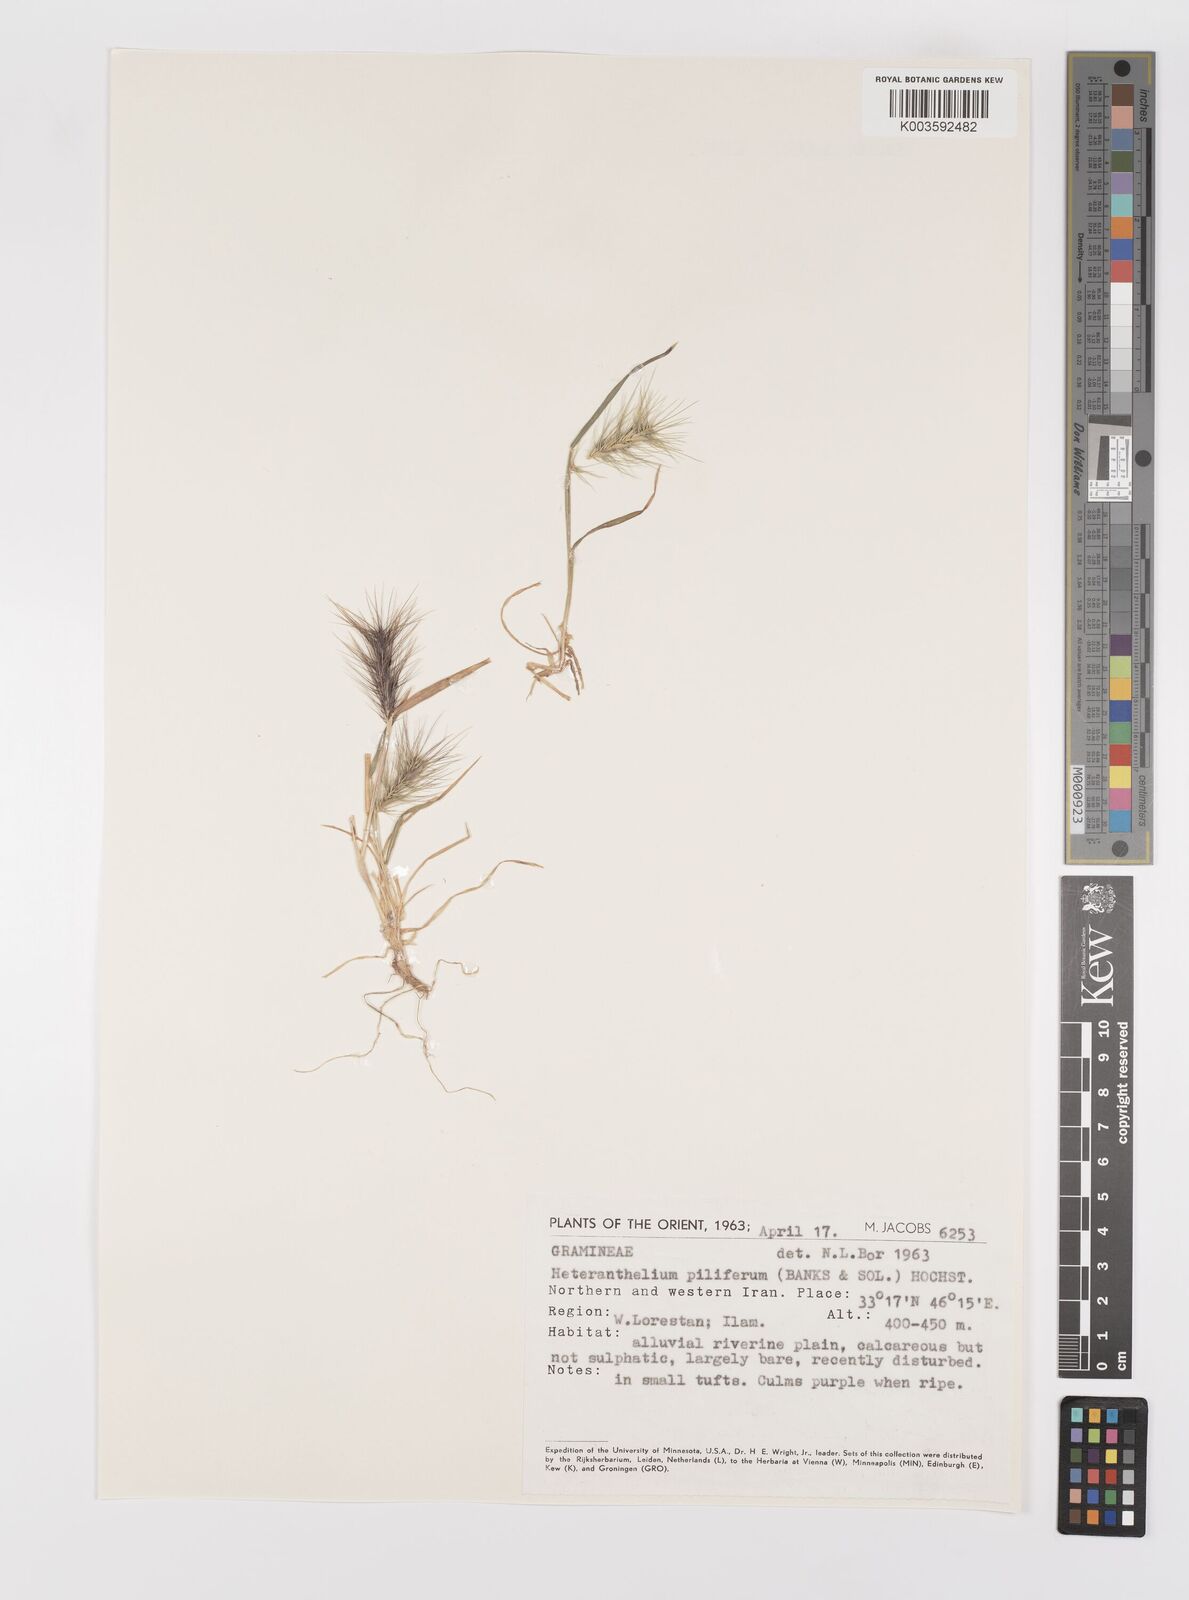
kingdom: Plantae
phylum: Tracheophyta
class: Liliopsida
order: Poales
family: Poaceae
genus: Heteranthelium
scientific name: Heteranthelium piliferum
